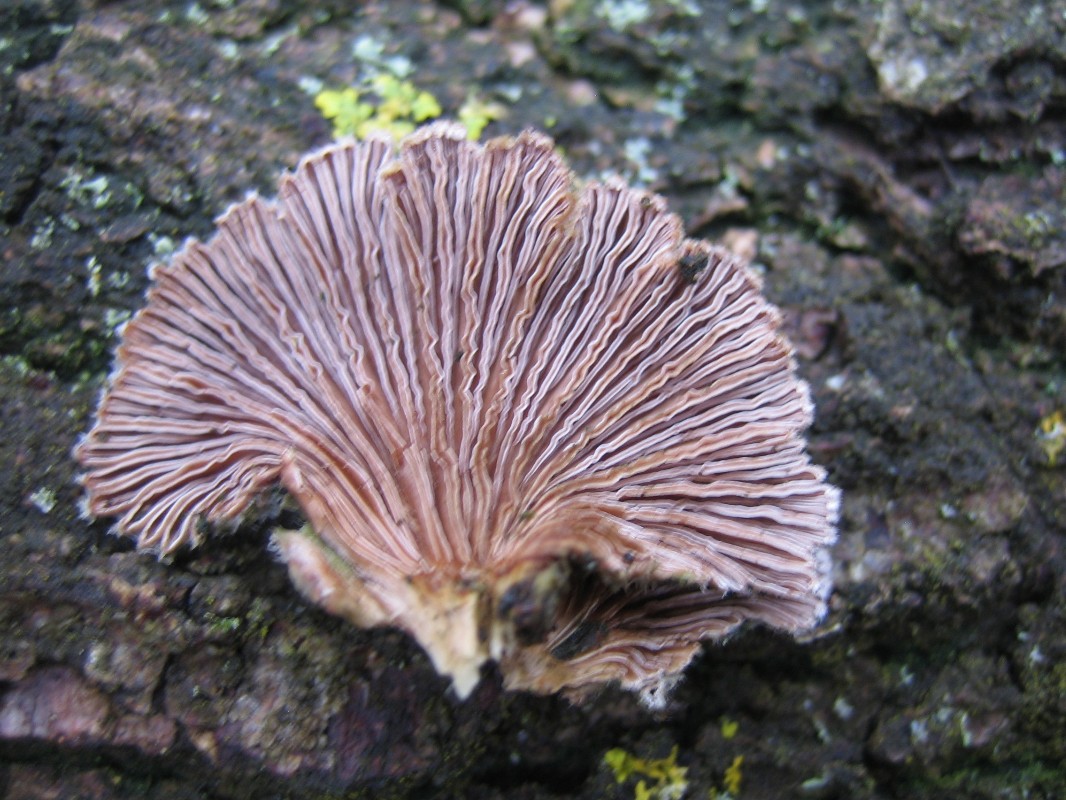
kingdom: Fungi
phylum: Basidiomycota
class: Agaricomycetes
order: Agaricales
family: Schizophyllaceae
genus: Schizophyllum
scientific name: Schizophyllum commune
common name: kløvblad
